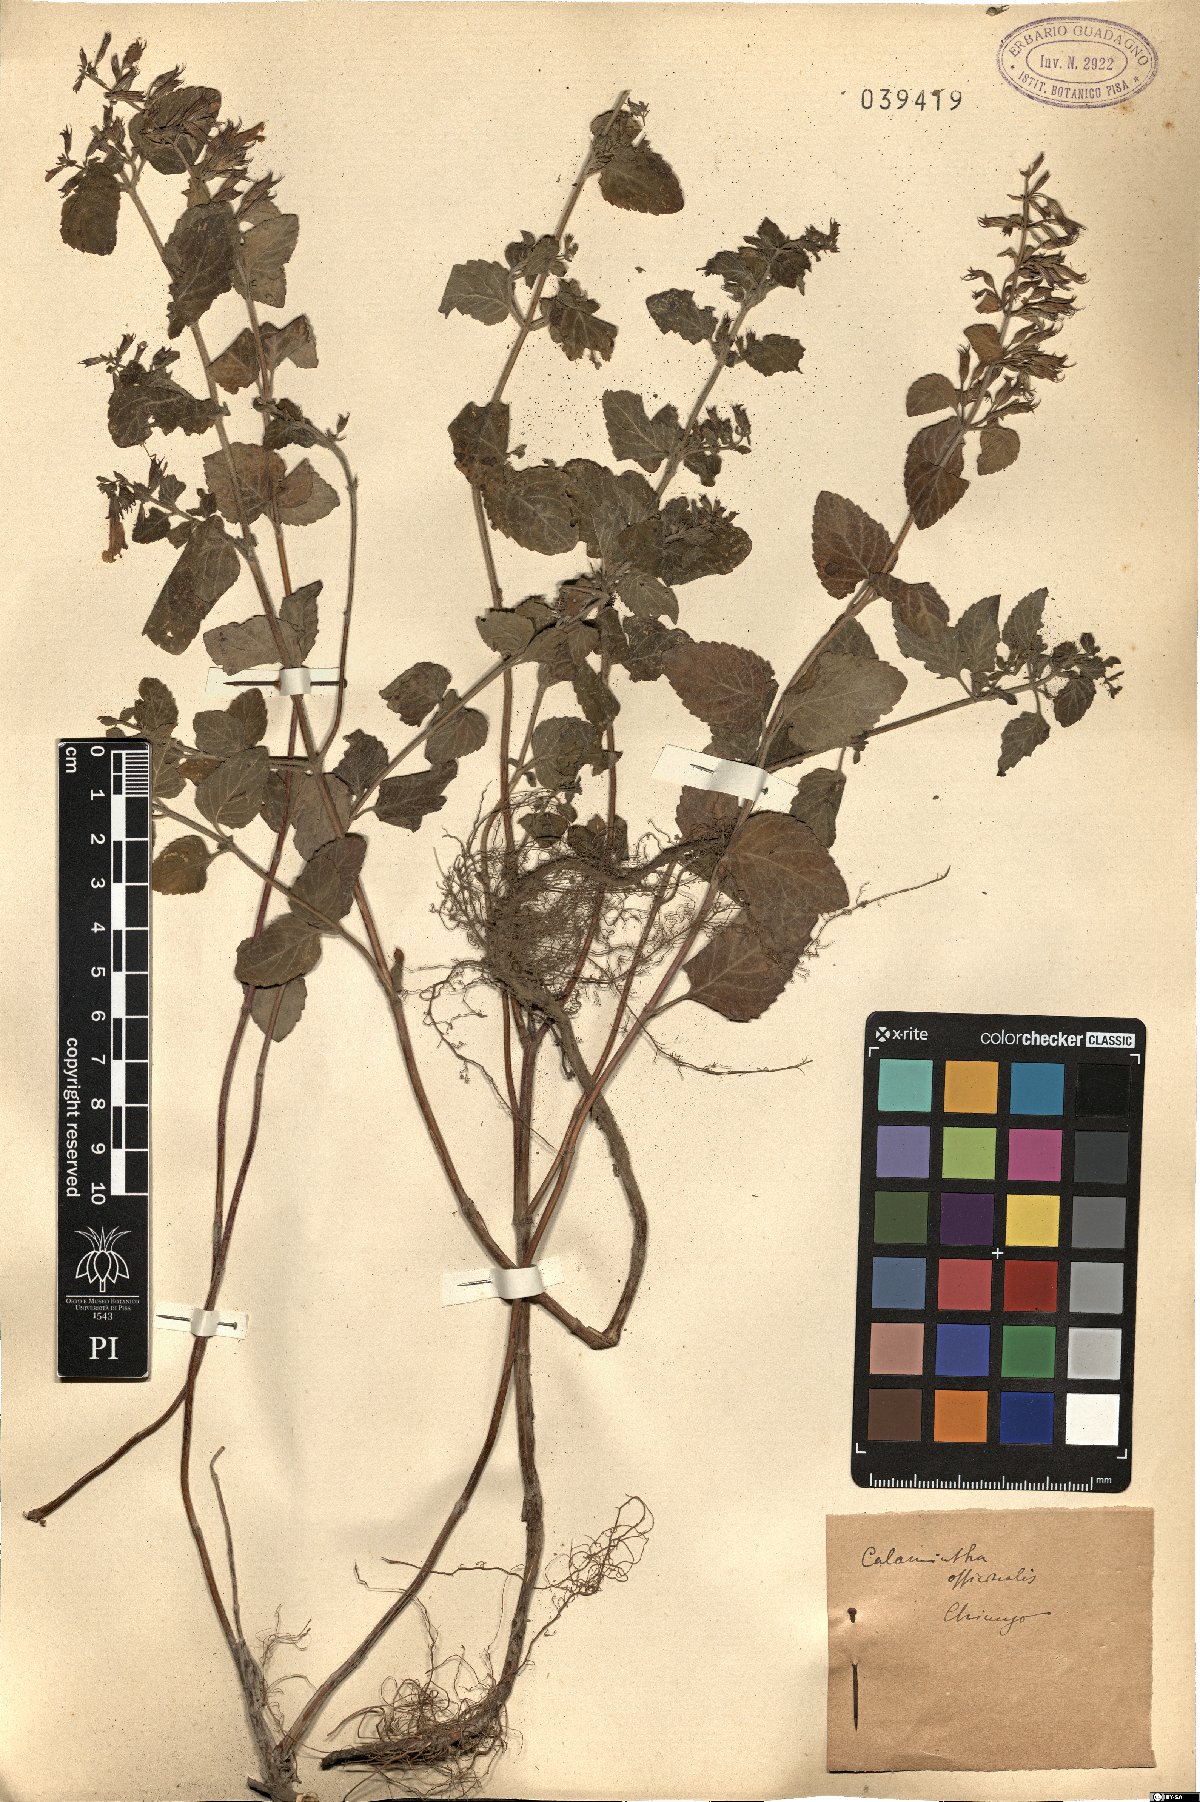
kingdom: Plantae
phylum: Tracheophyta
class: Magnoliopsida
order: Lamiales
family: Lamiaceae
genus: Clinopodium
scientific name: Clinopodium nepeta
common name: Lesser calamint
